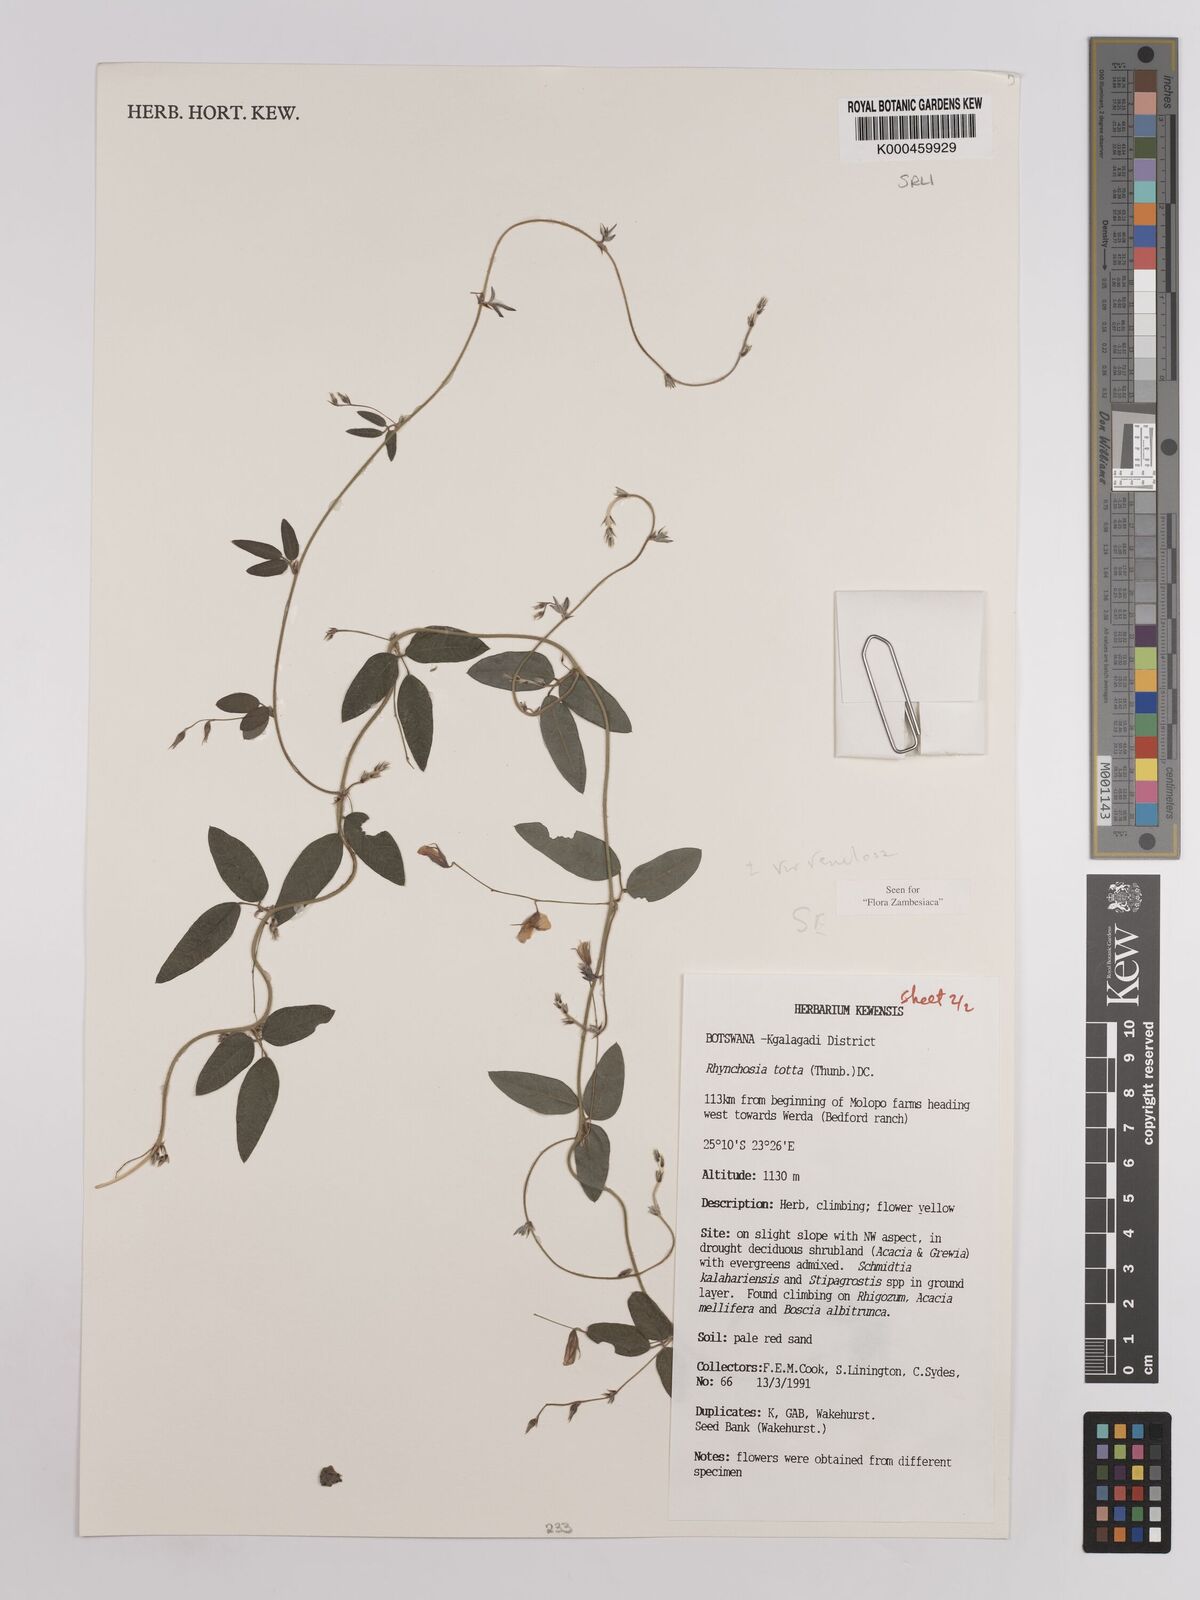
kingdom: Plantae
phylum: Tracheophyta
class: Magnoliopsida
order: Fabales
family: Fabaceae
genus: Rhynchosia
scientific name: Rhynchosia totta
